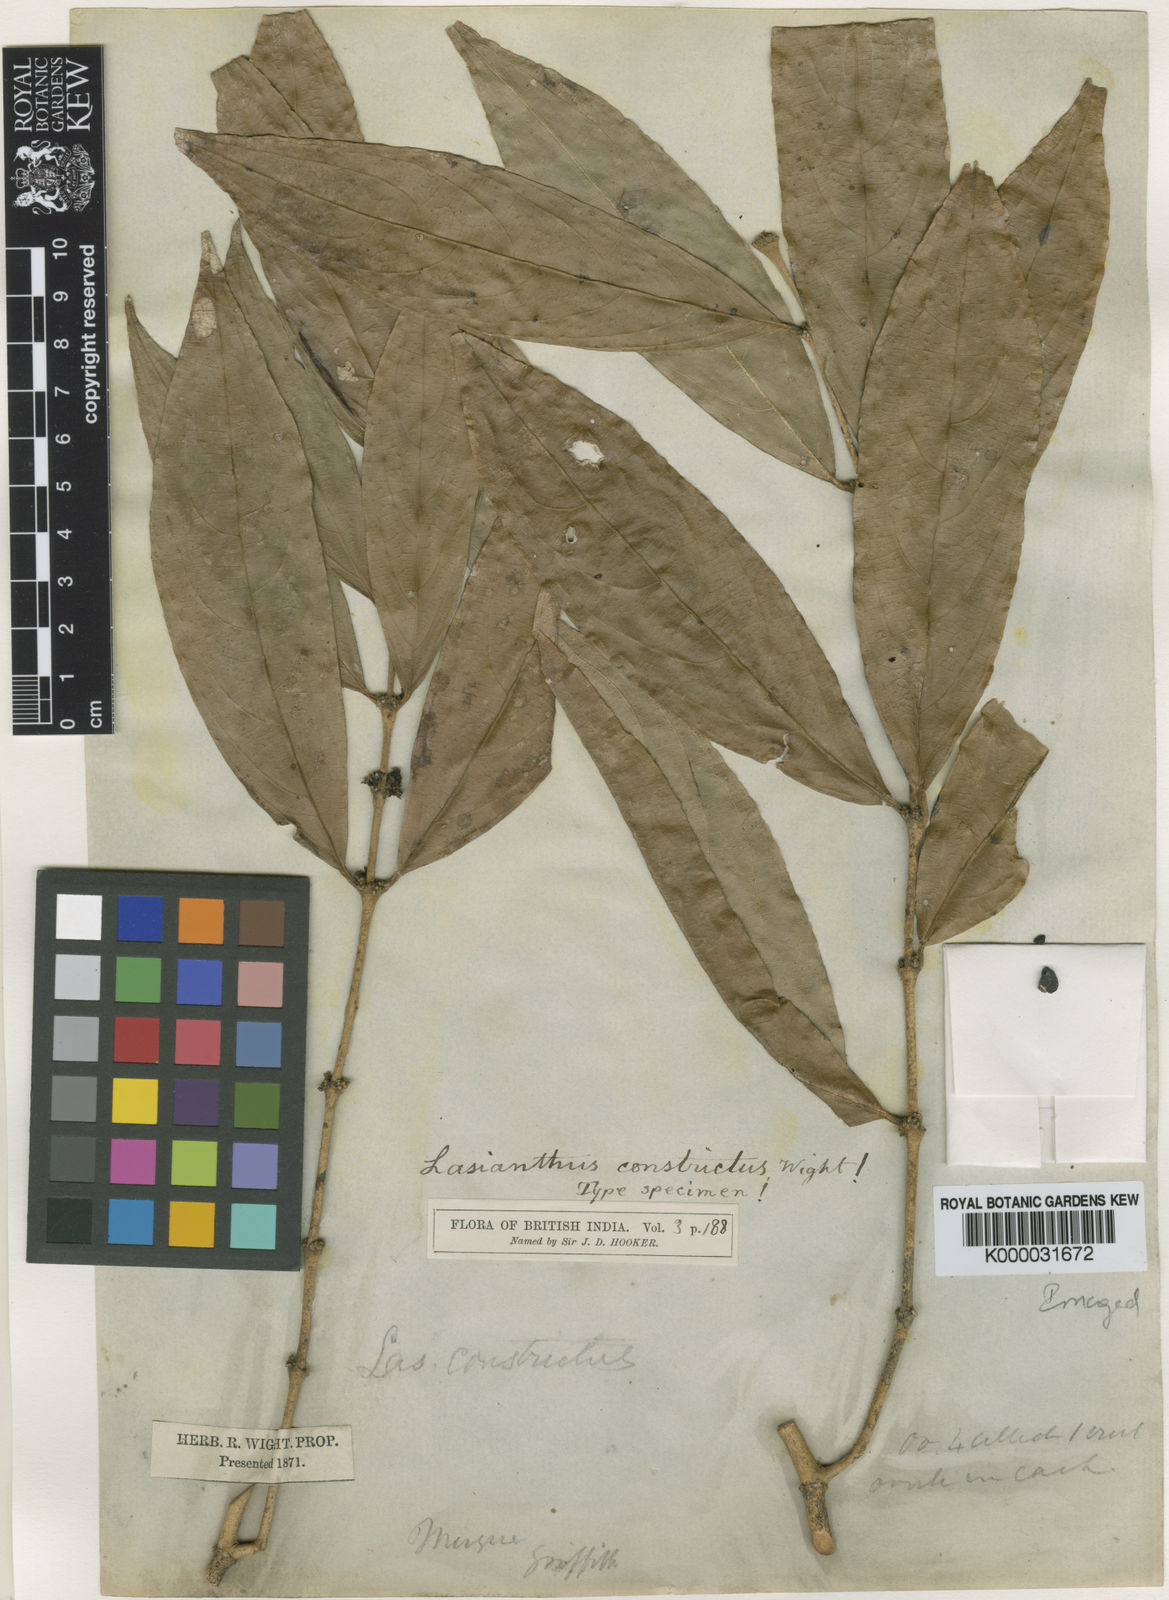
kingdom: Plantae
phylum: Tracheophyta
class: Magnoliopsida
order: Gentianales
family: Rubiaceae
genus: Lasianthus
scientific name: Lasianthus constrictus
